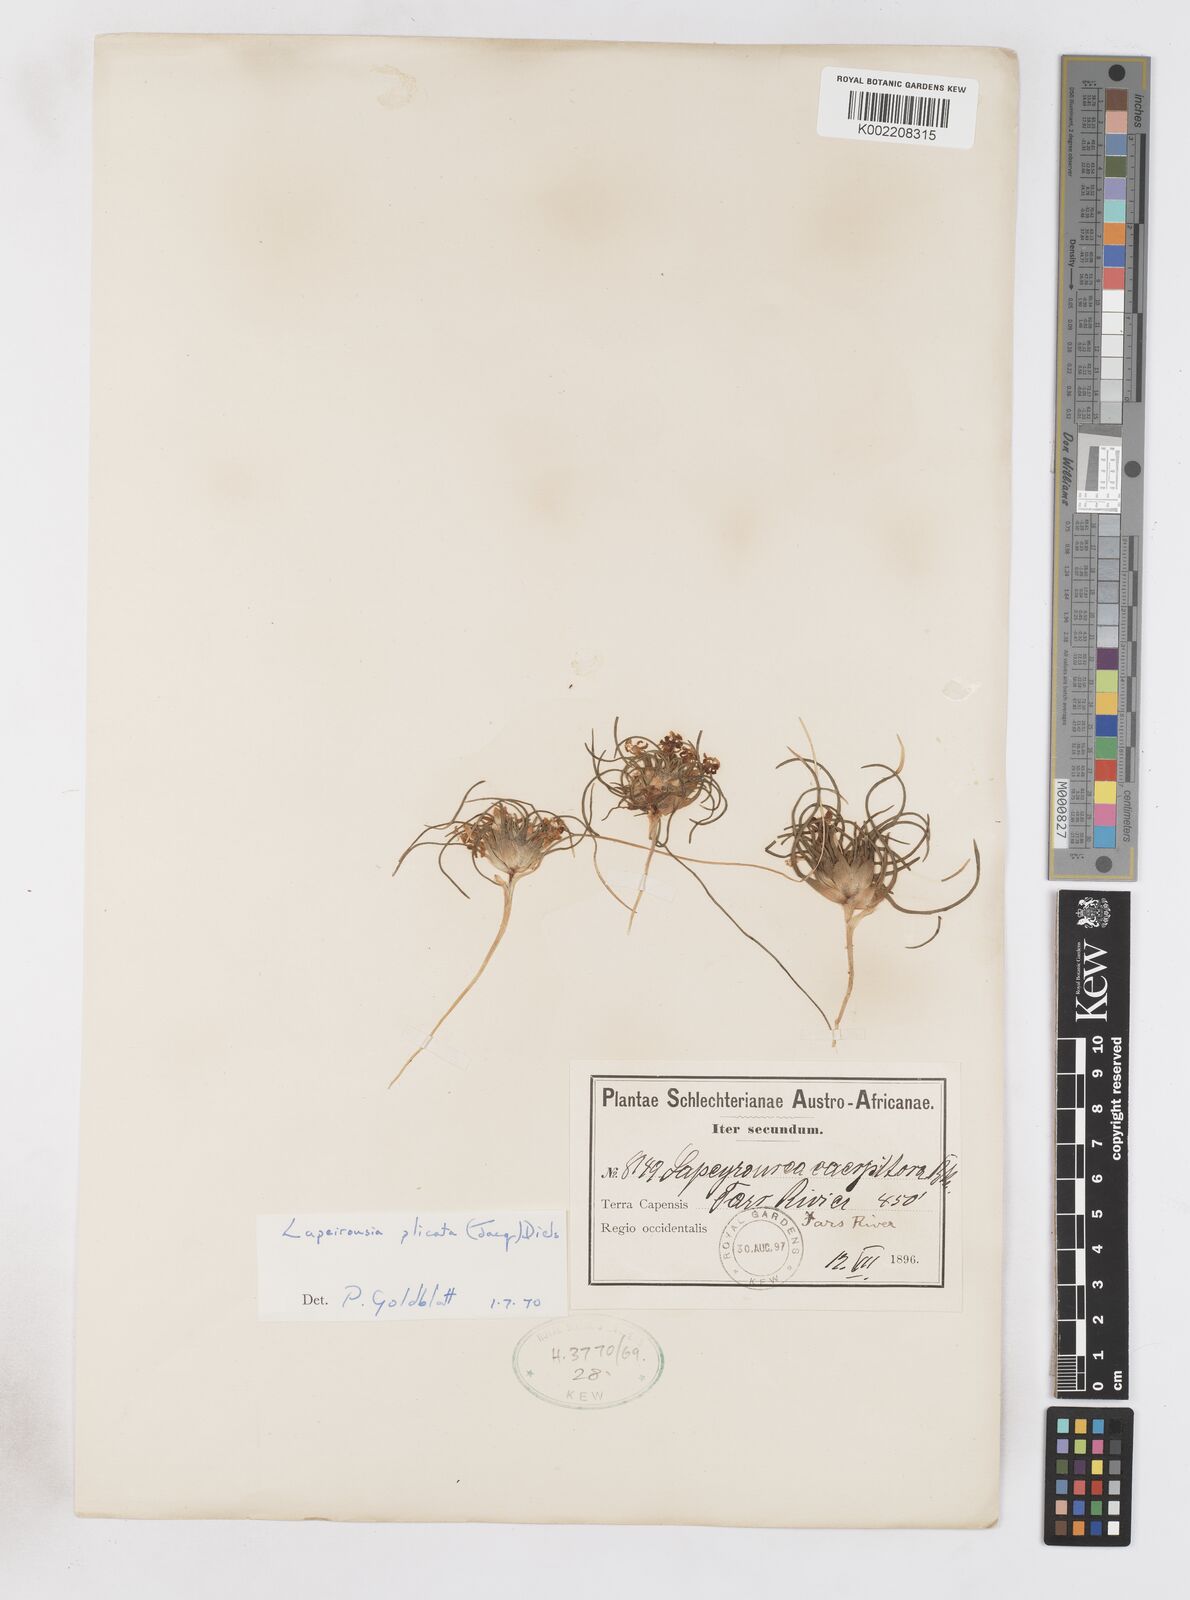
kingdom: Plantae
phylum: Tracheophyta
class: Liliopsida
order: Asparagales
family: Iridaceae
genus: Lapeirousia
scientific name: Lapeirousia plicata
